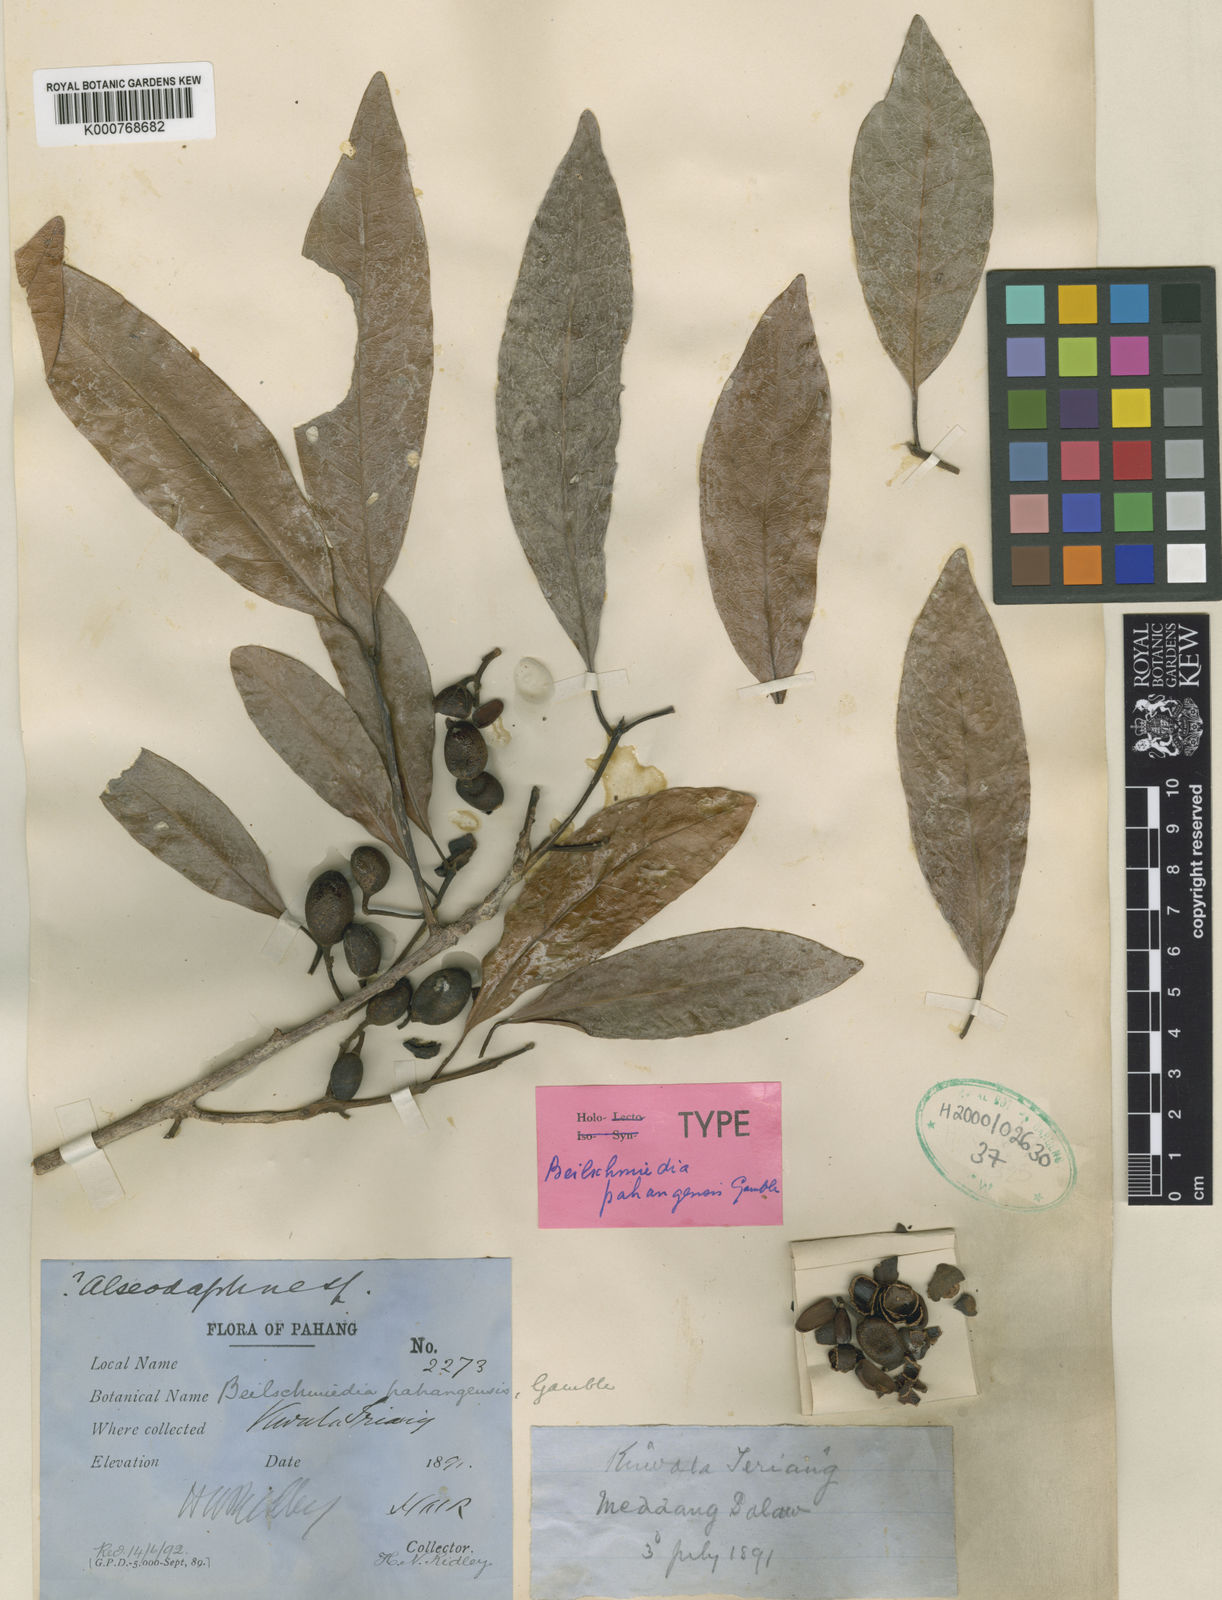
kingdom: Plantae
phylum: Tracheophyta
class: Magnoliopsida
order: Laurales
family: Lauraceae
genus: Beilschmiedia
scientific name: Beilschmiedia roxburghiana
